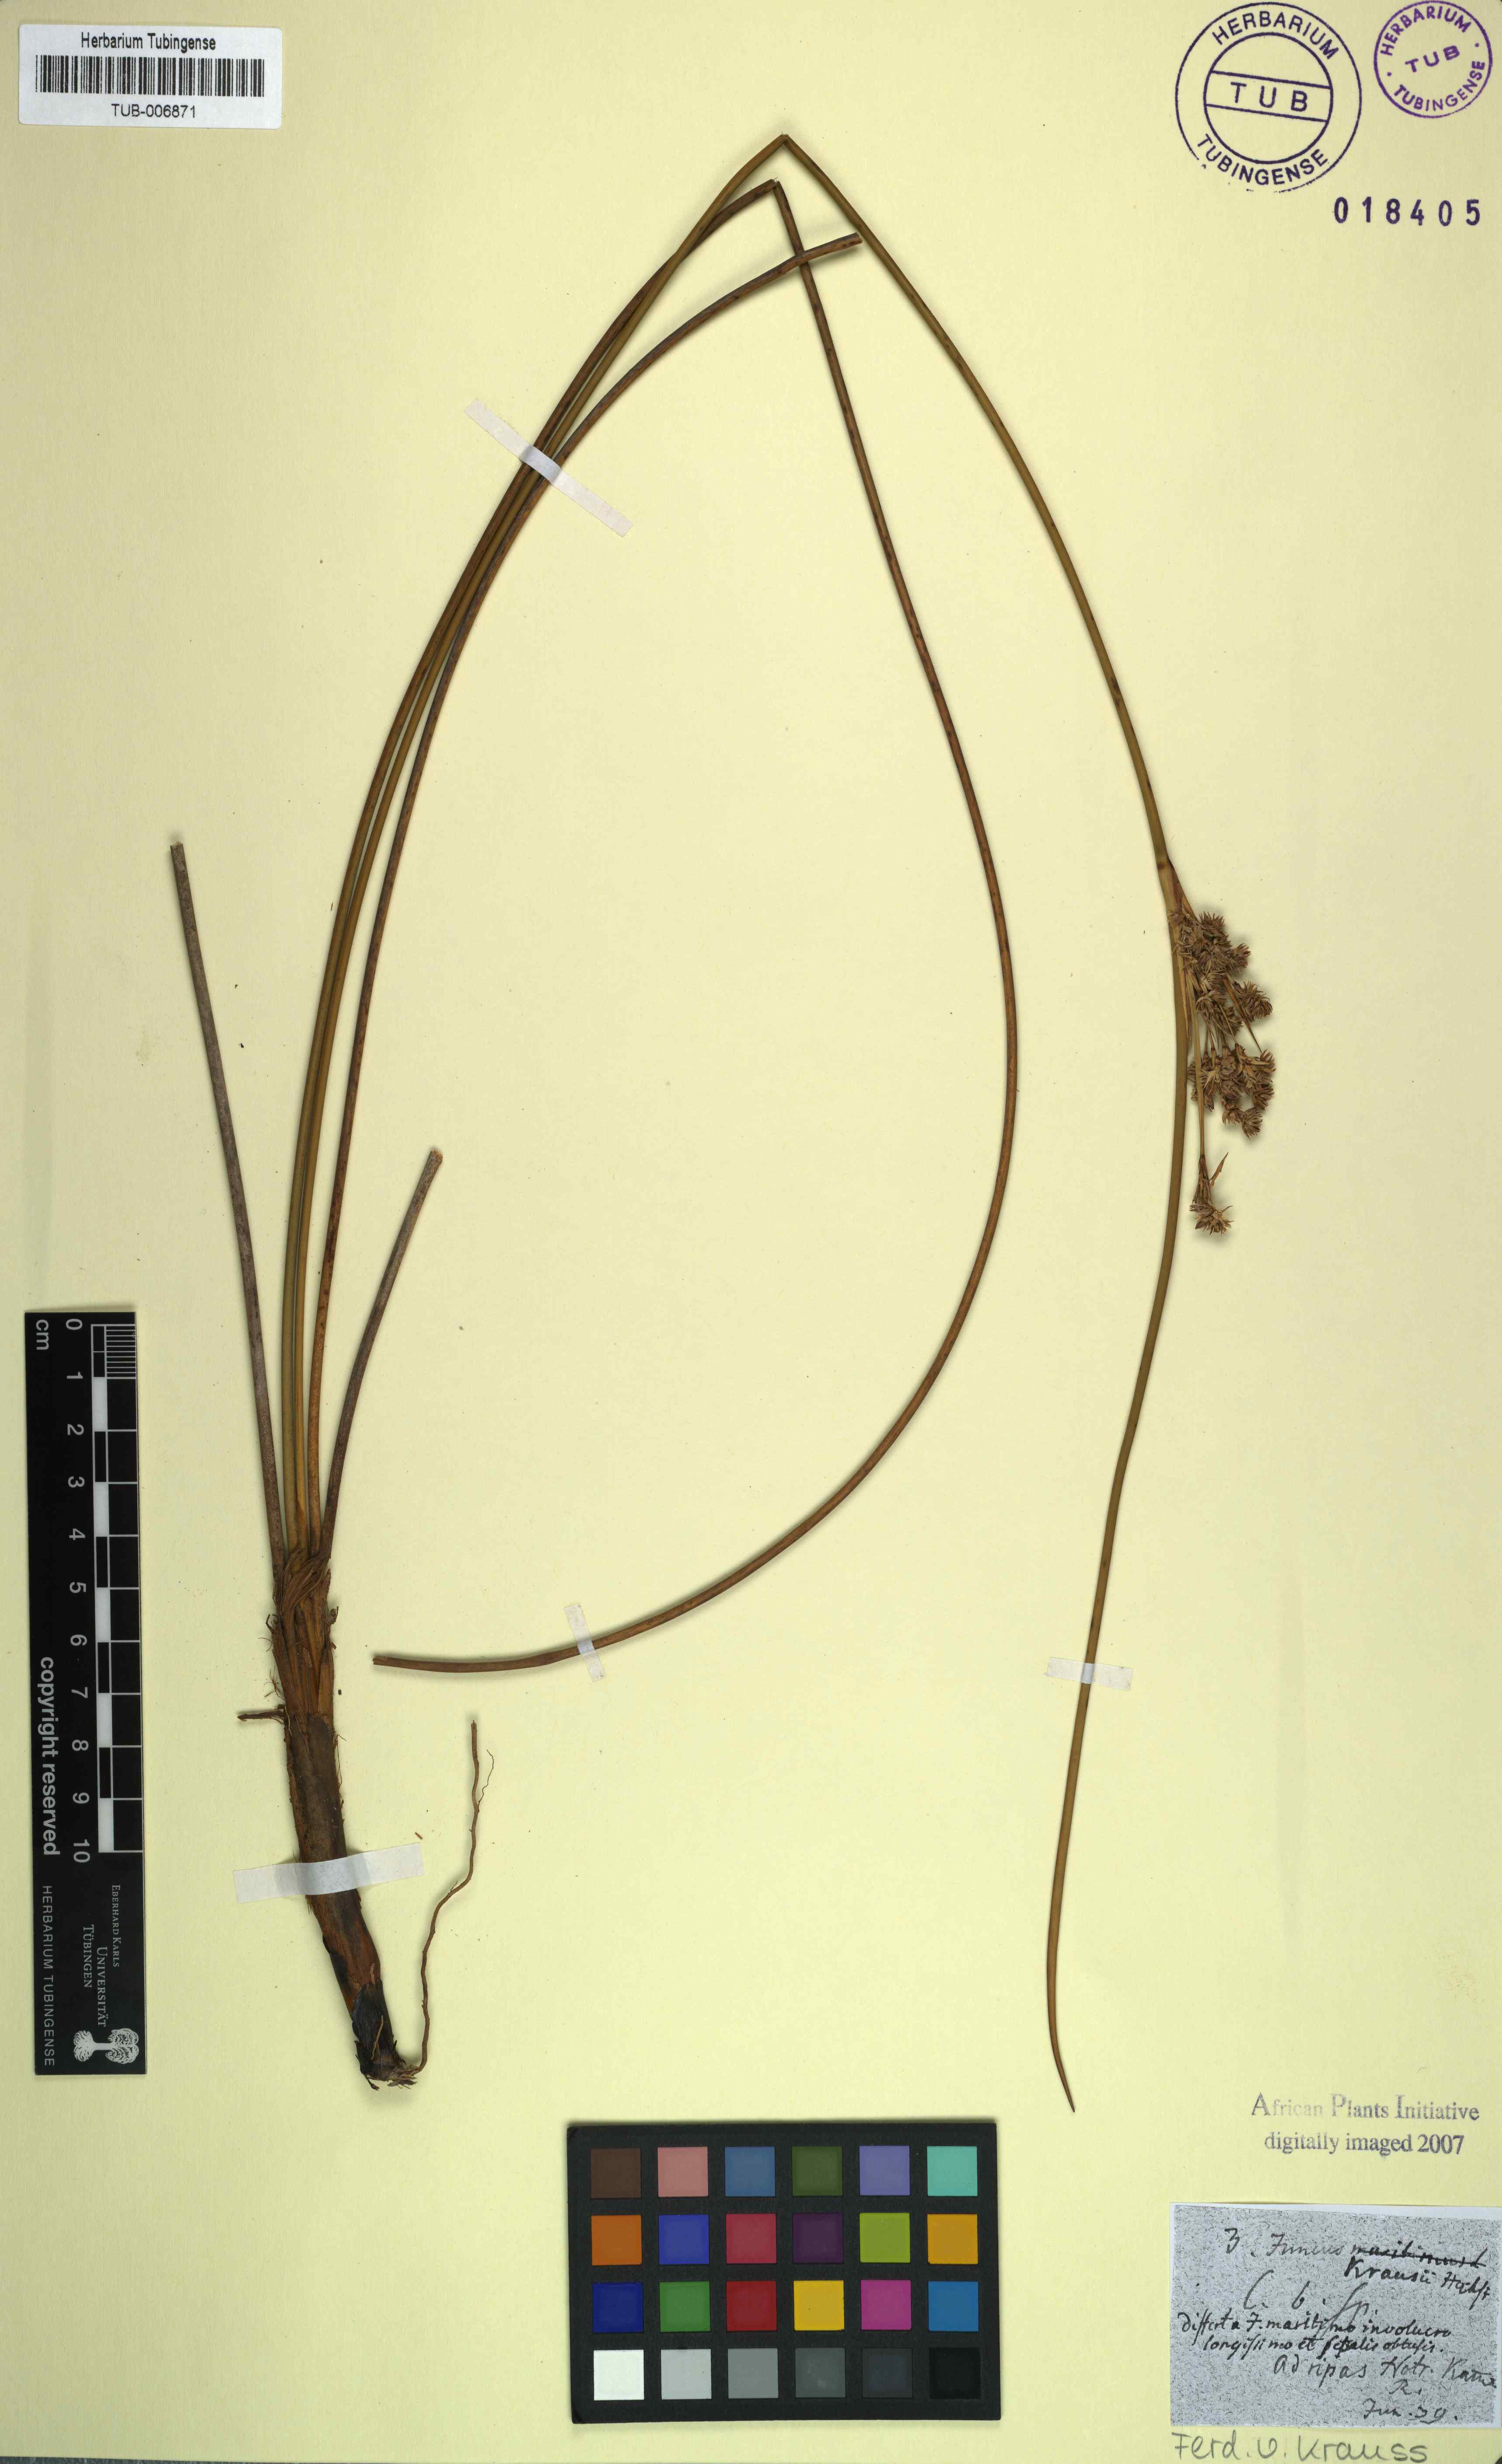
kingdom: Plantae
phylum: Tracheophyta
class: Liliopsida
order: Poales
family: Juncaceae
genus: Juncus
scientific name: Juncus kraussii
